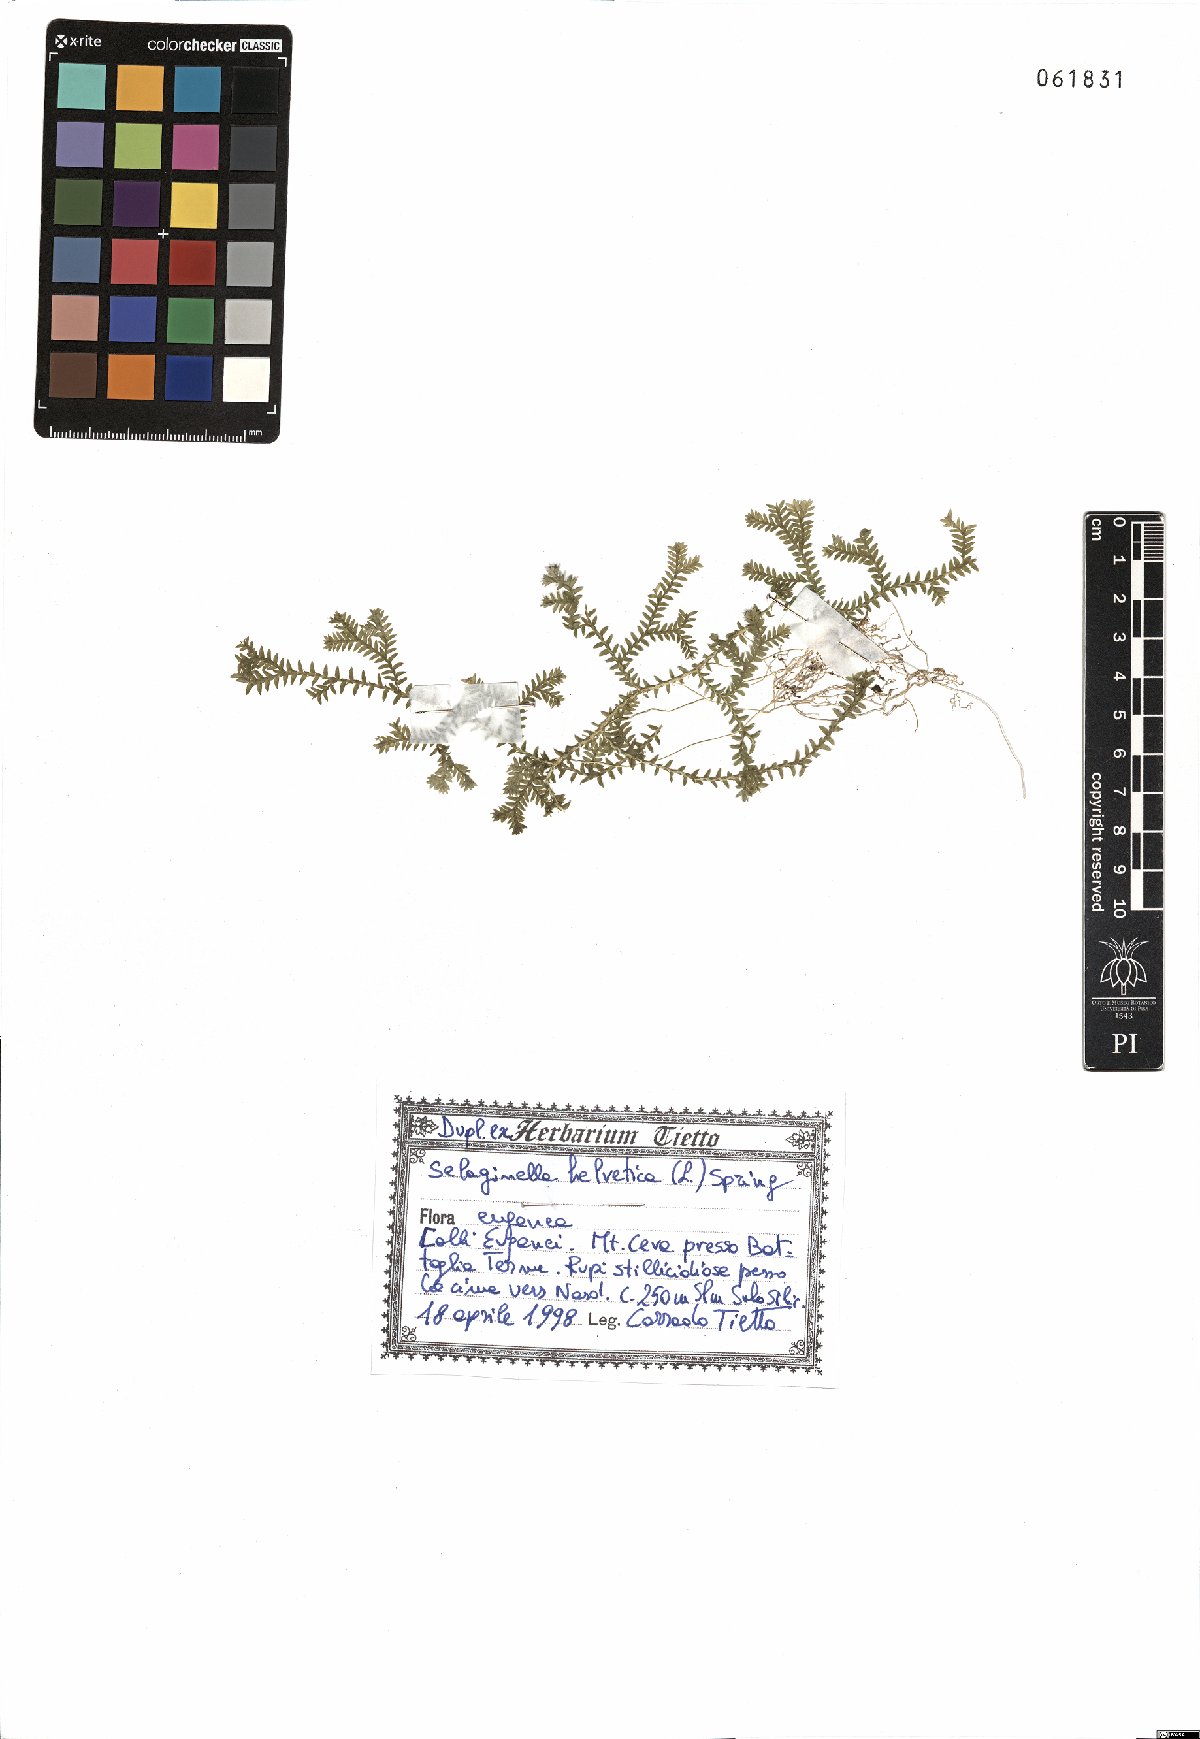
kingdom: Plantae
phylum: Tracheophyta
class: Lycopodiopsida
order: Selaginellales
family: Selaginellaceae
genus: Selaginella
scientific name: Selaginella helvetica
